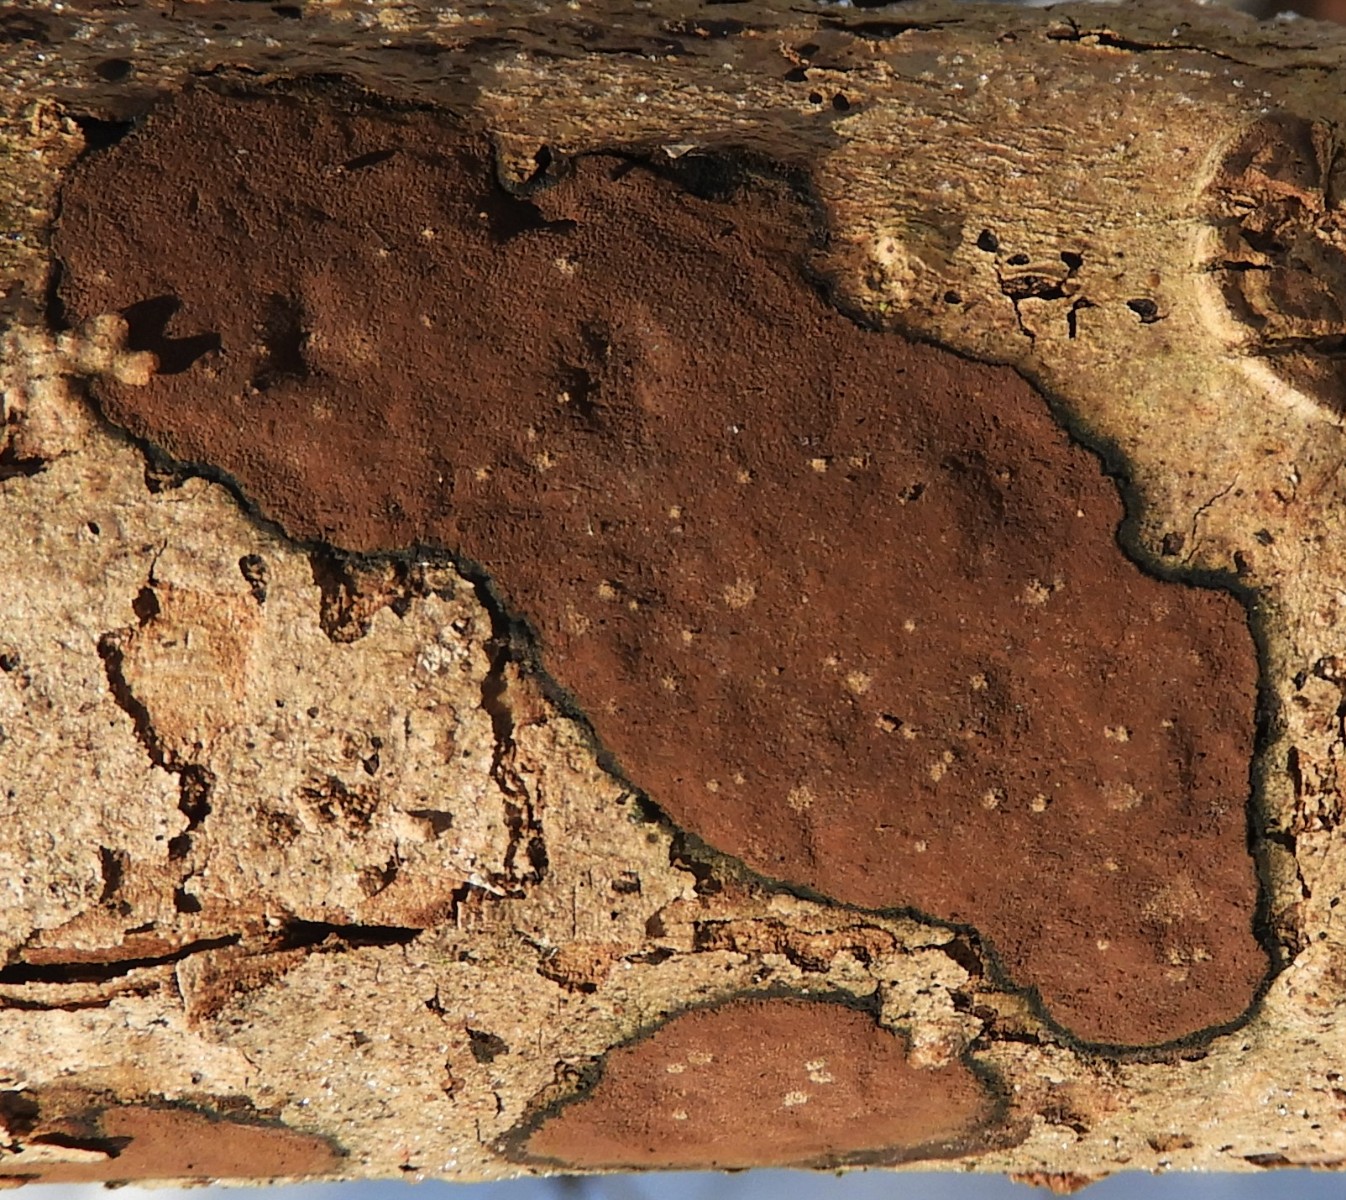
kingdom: Fungi
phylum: Ascomycota
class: Sordariomycetes
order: Xylariales
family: Hypoxylaceae
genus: Hypoxylon
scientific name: Hypoxylon petriniae
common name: nedsænket kulbær
